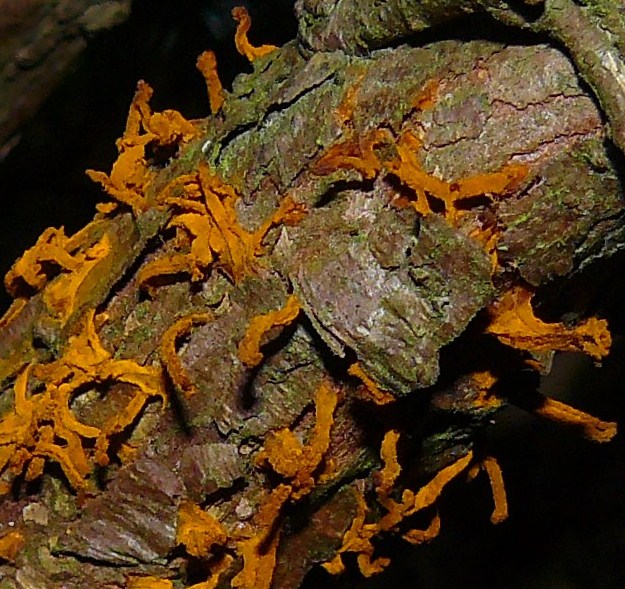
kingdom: Fungi
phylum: Basidiomycota
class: Pucciniomycetes
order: Pucciniales
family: Gymnosporangiaceae
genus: Gymnosporangium
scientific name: Gymnosporangium clavariiforme
